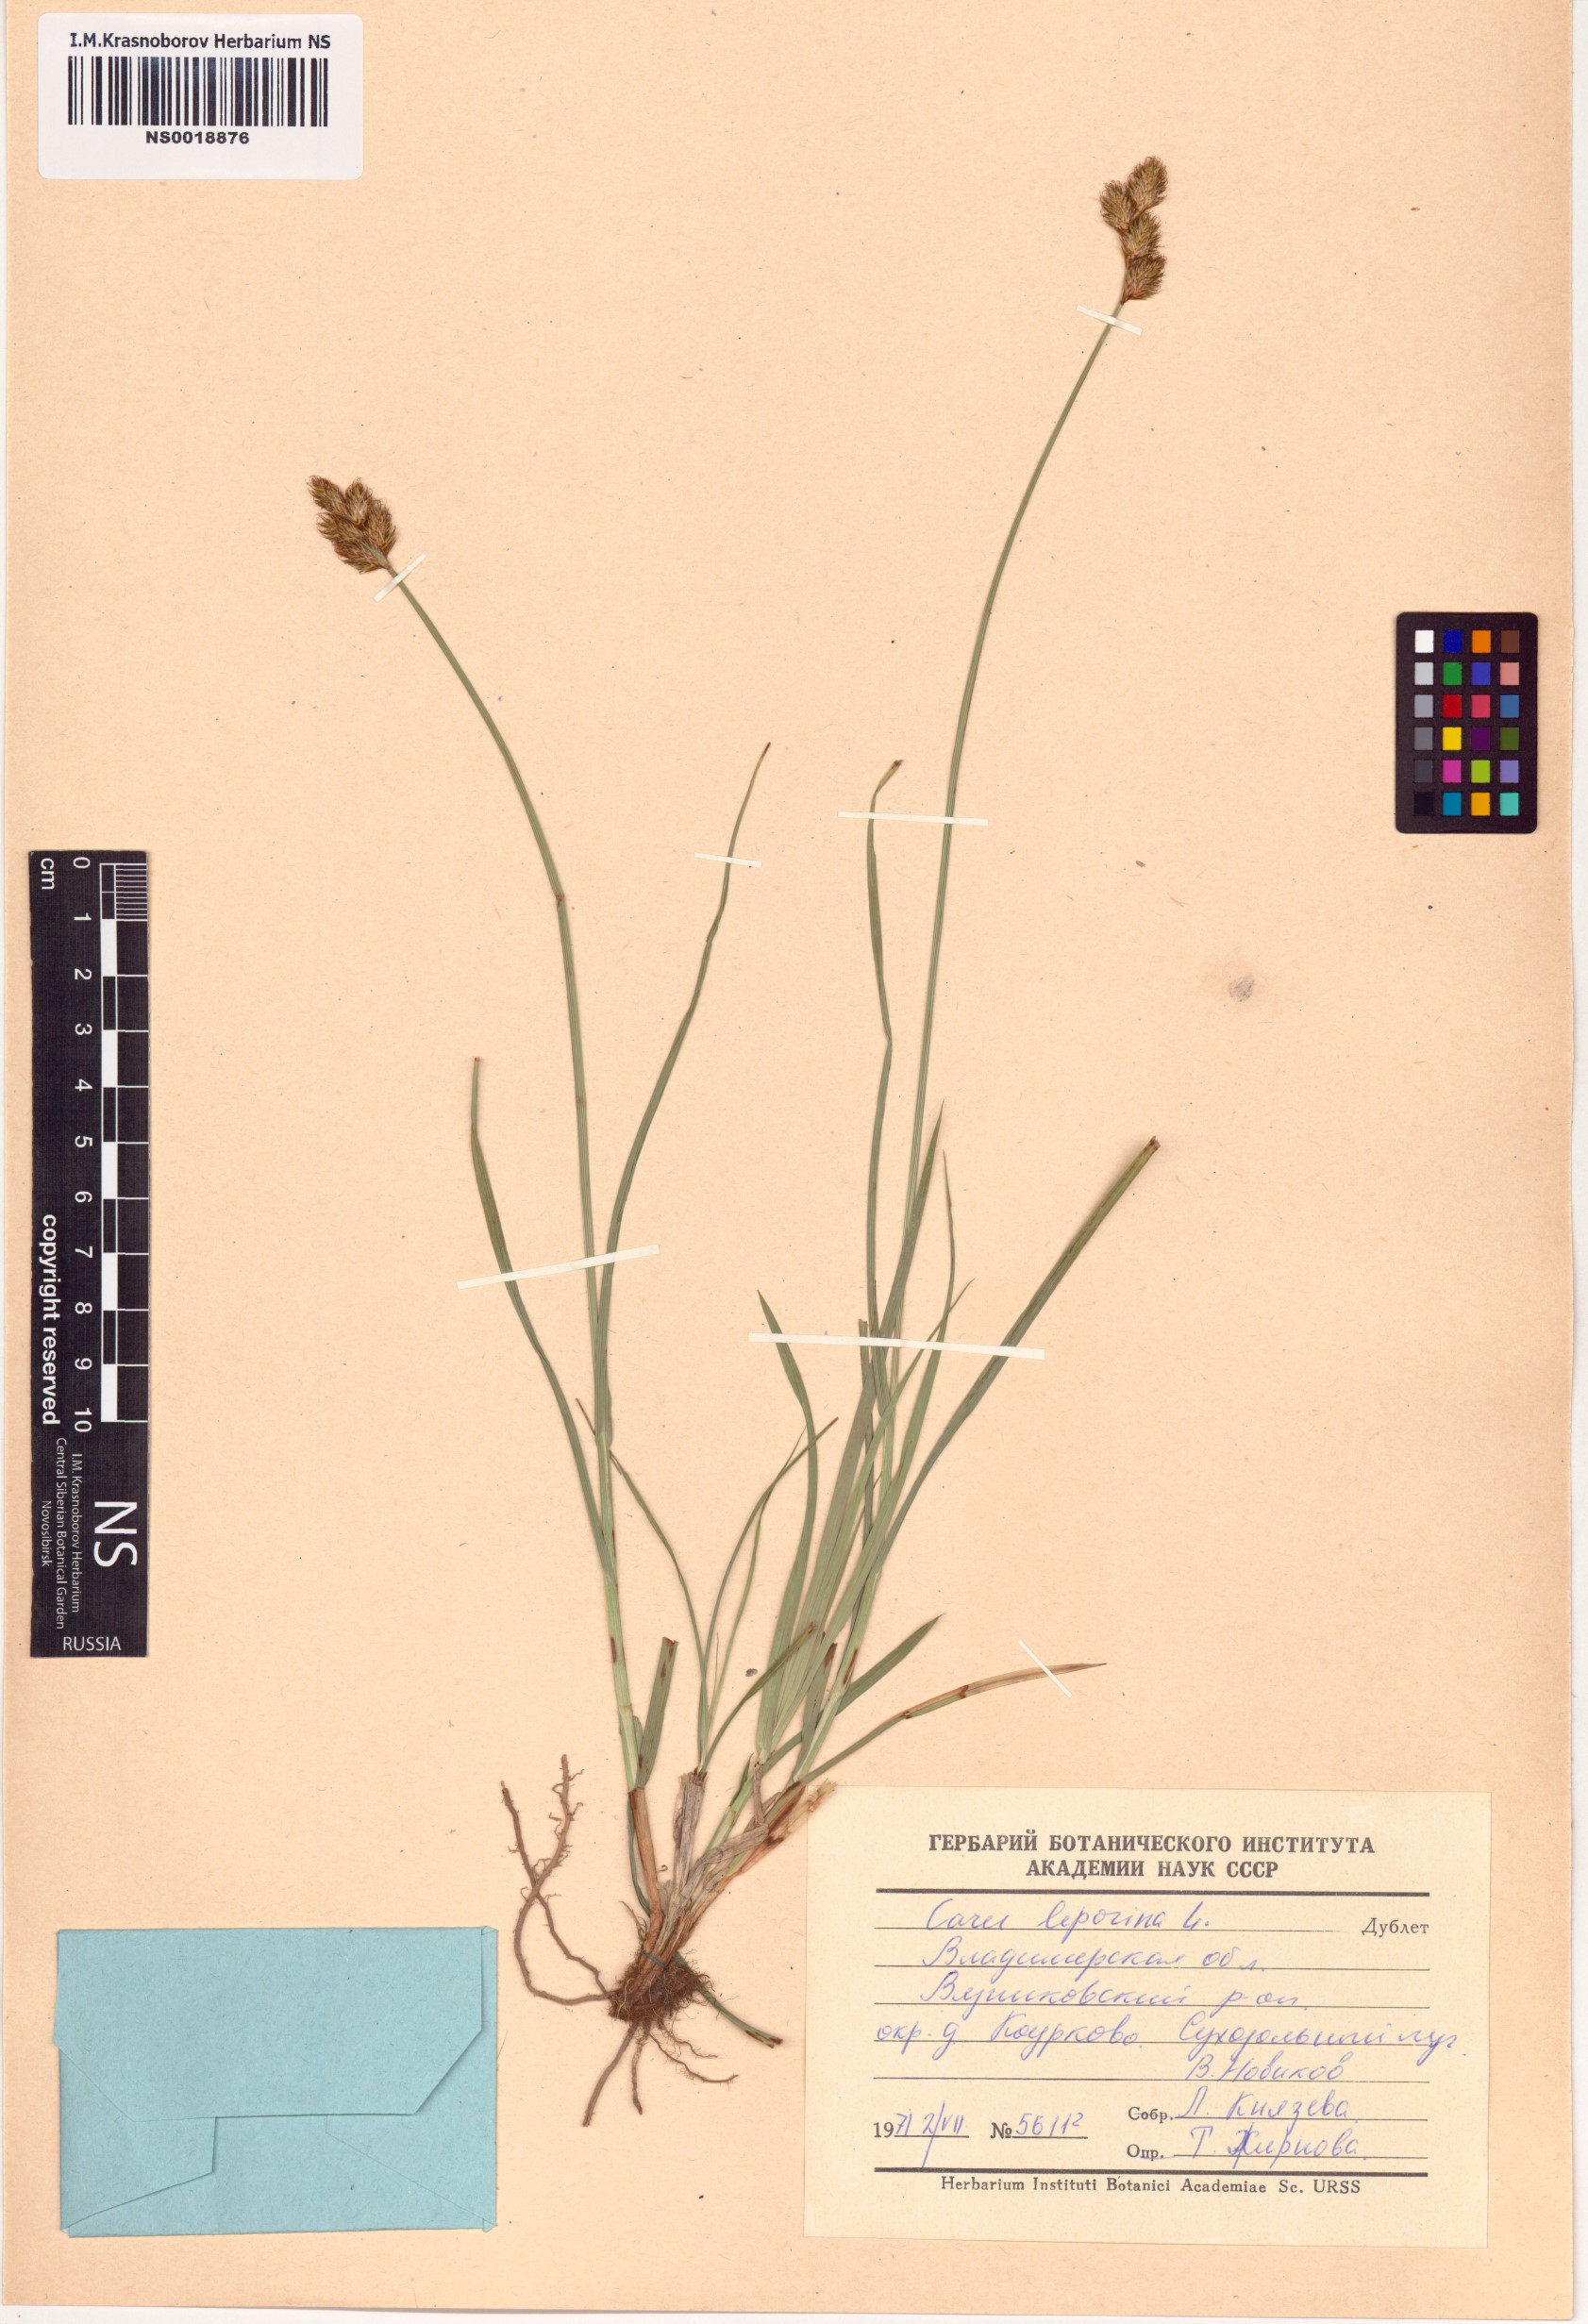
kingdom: Plantae
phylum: Tracheophyta
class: Liliopsida
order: Poales
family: Cyperaceae
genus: Carex
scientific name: Carex leporina
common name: Oval sedge
